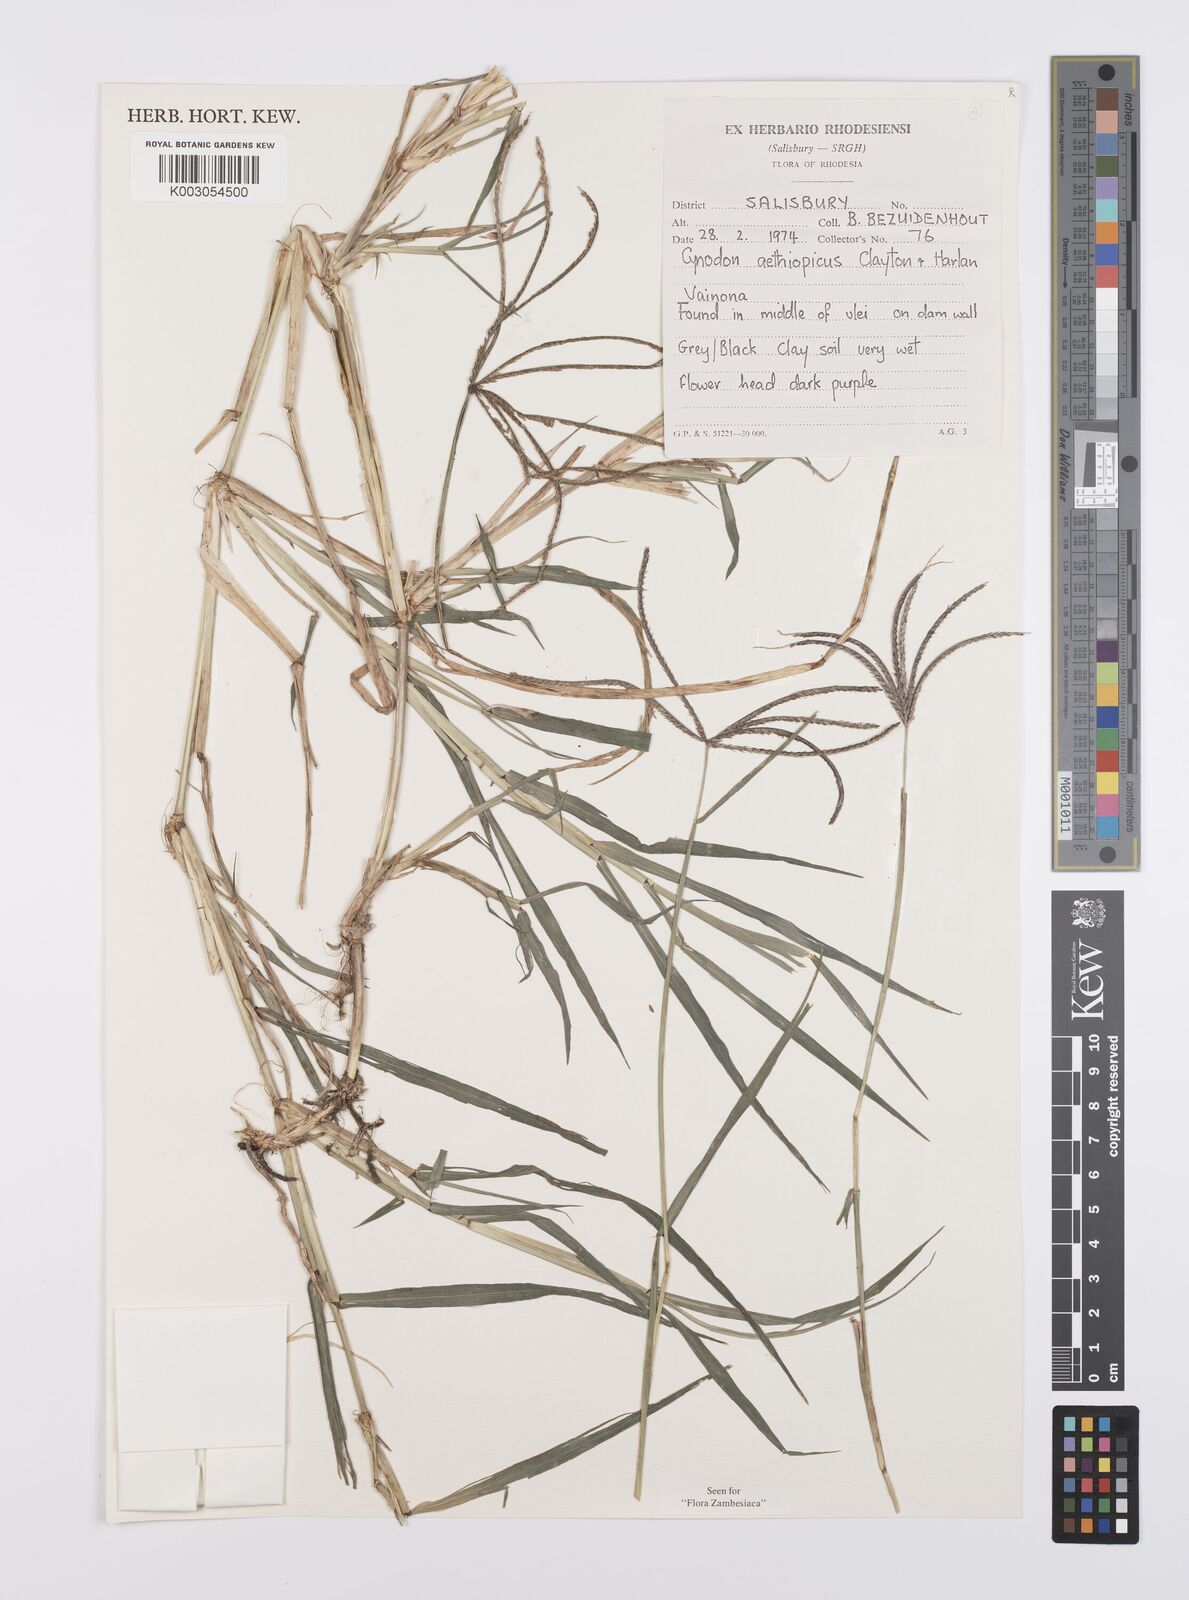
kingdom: Plantae
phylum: Tracheophyta
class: Liliopsida
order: Poales
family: Poaceae
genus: Cynodon
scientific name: Cynodon aethiopicus
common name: Ethiopian dogstooth grass
